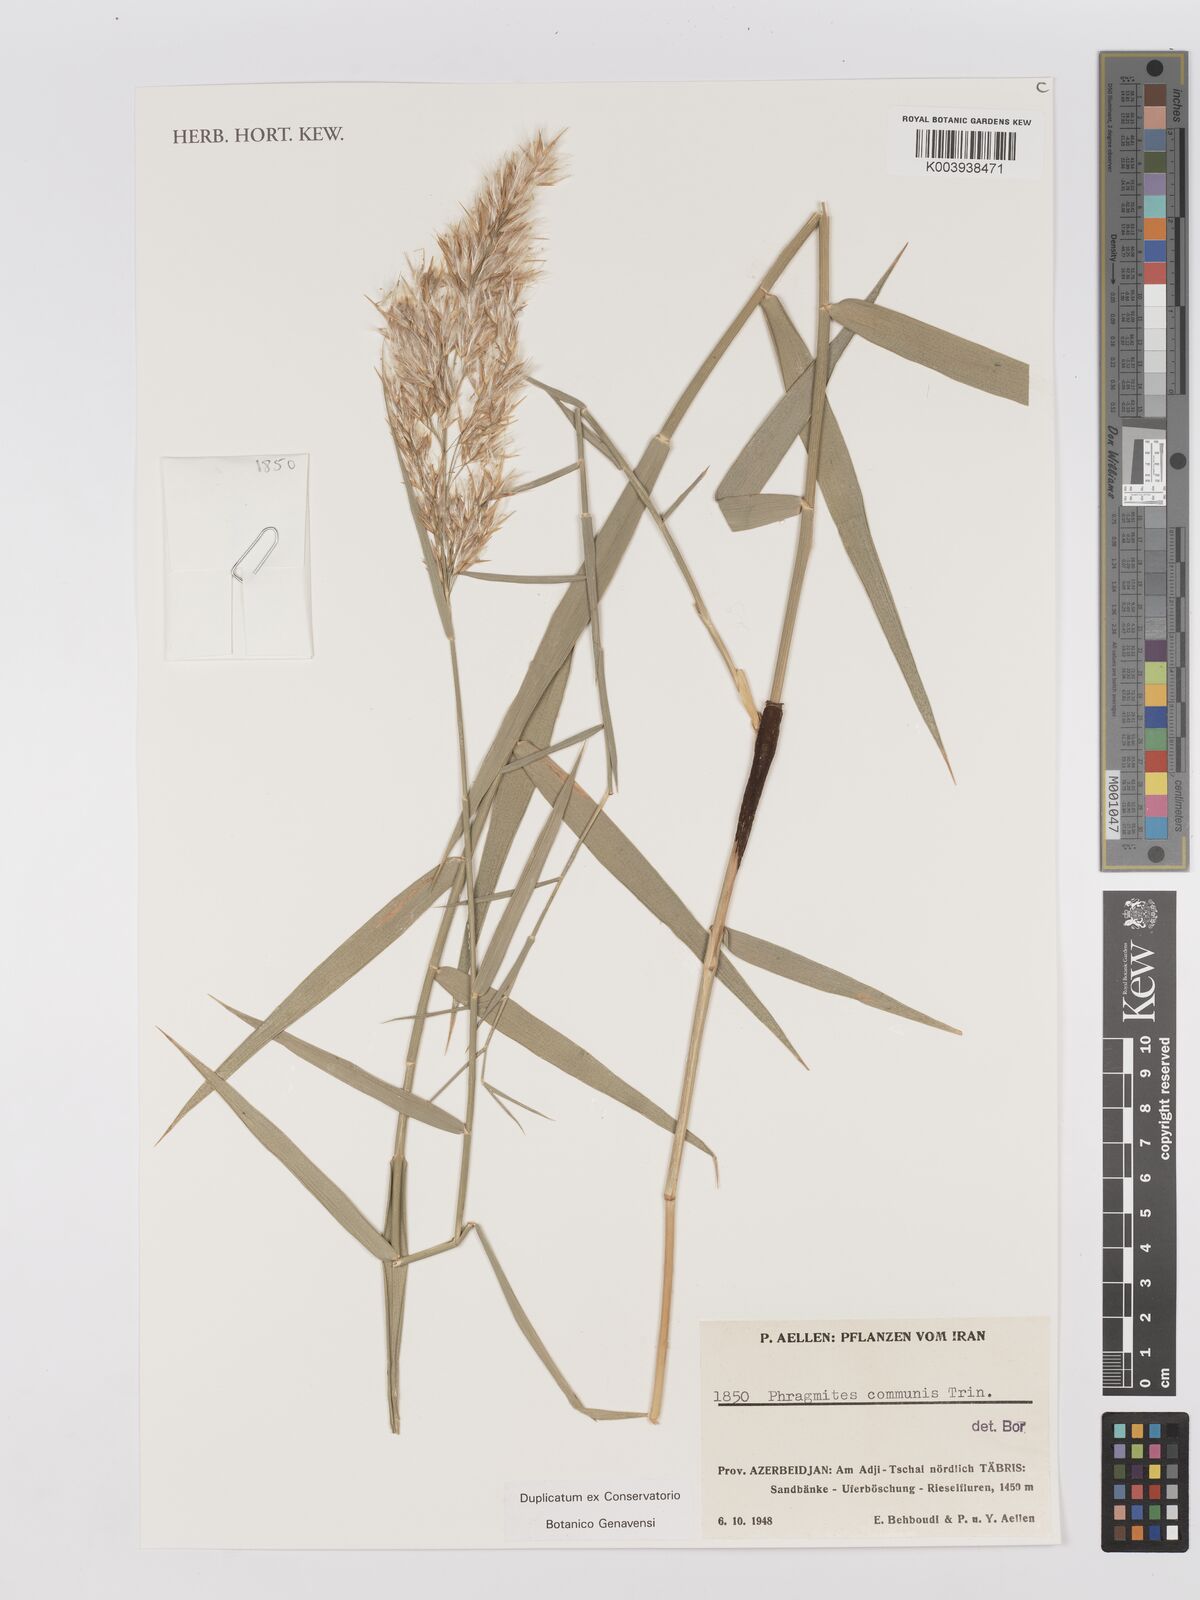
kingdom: Plantae
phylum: Tracheophyta
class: Liliopsida
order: Poales
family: Poaceae
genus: Phragmites
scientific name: Phragmites australis
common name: Common reed
